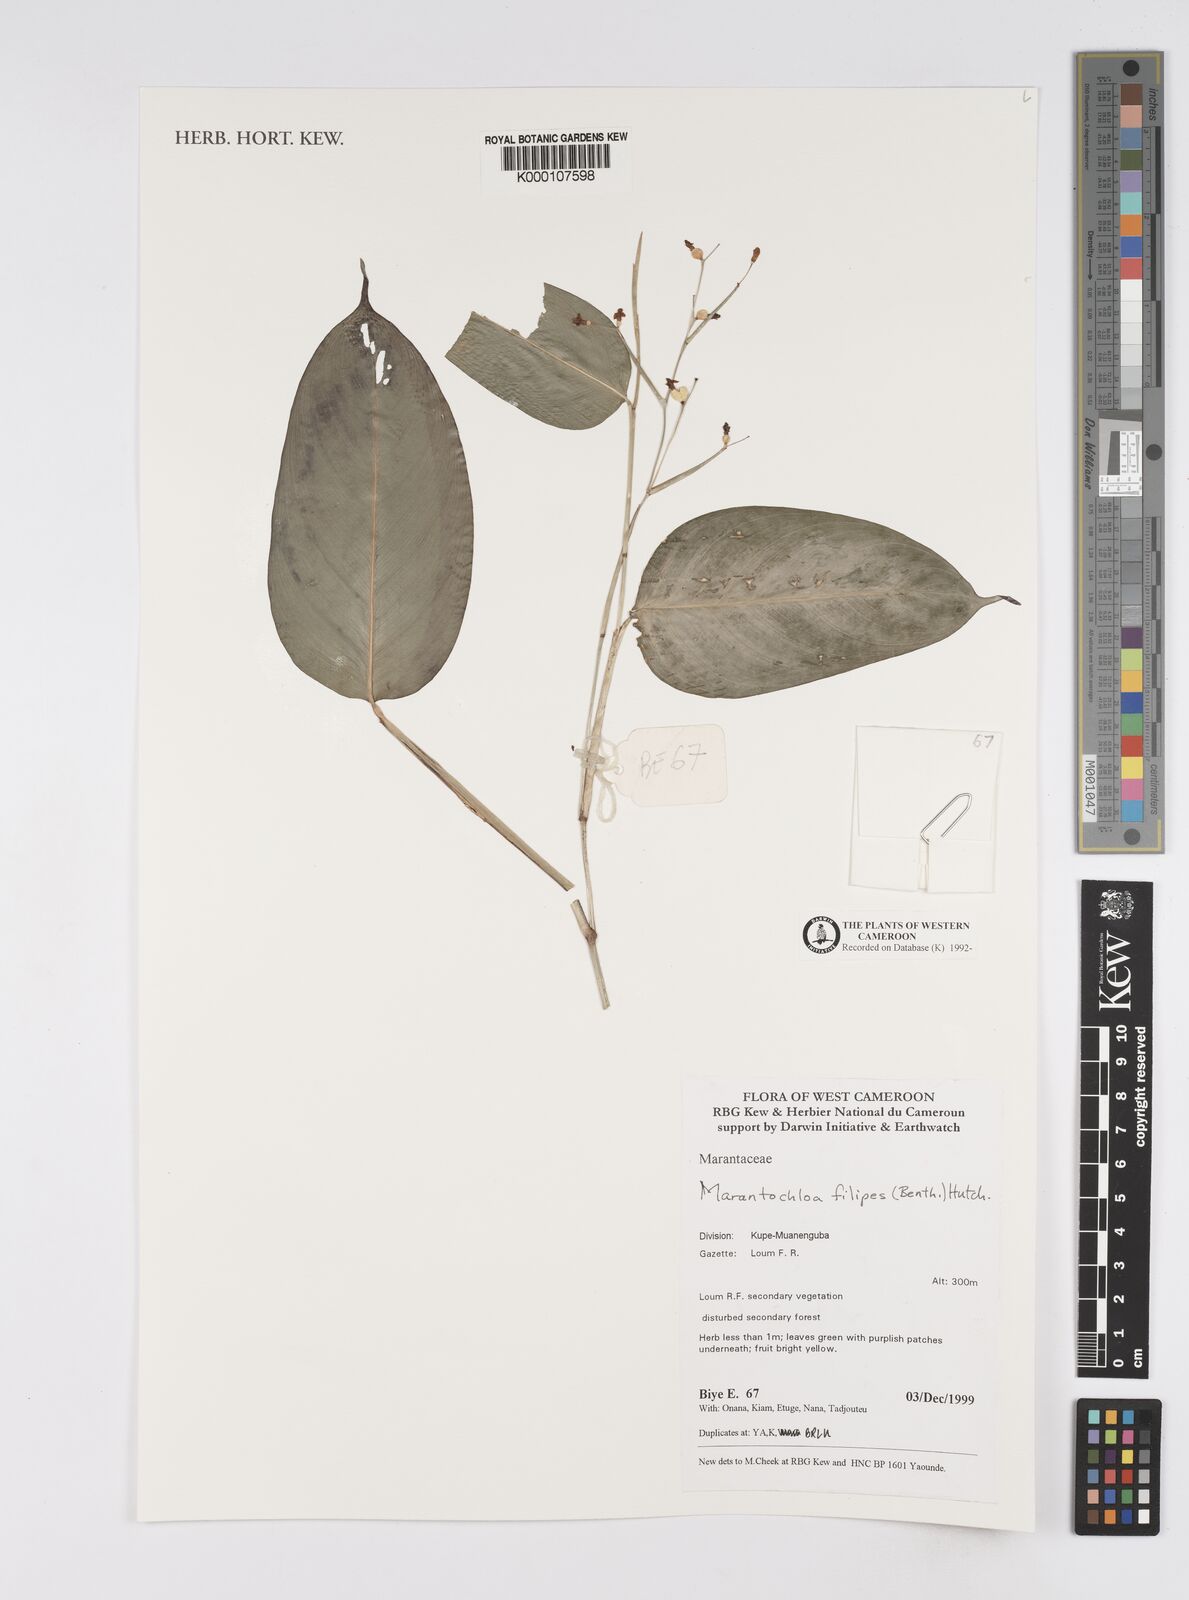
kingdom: Plantae
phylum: Tracheophyta
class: Liliopsida
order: Zingiberales
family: Marantaceae
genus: Marantochloa
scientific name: Marantochloa filipes
